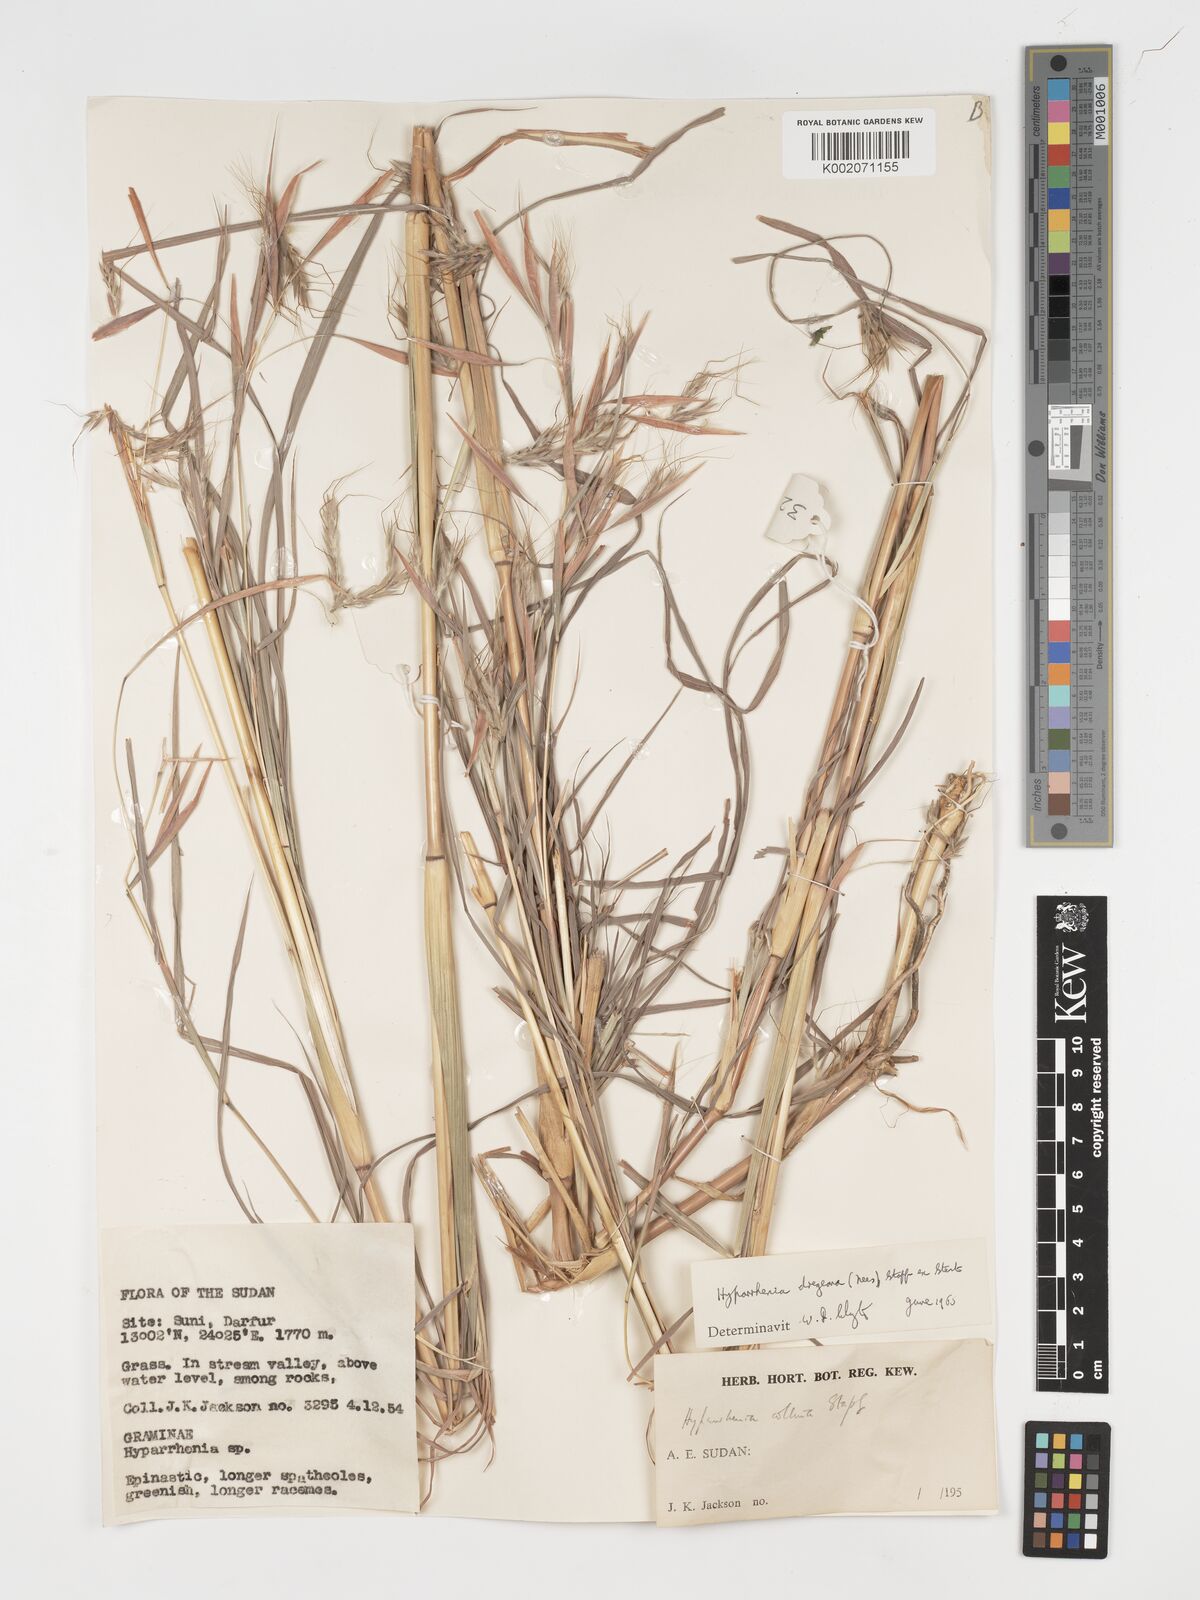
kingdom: Plantae
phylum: Tracheophyta
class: Liliopsida
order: Poales
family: Poaceae
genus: Hyparrhenia
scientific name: Hyparrhenia dregeana
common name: Silky thatching grass
